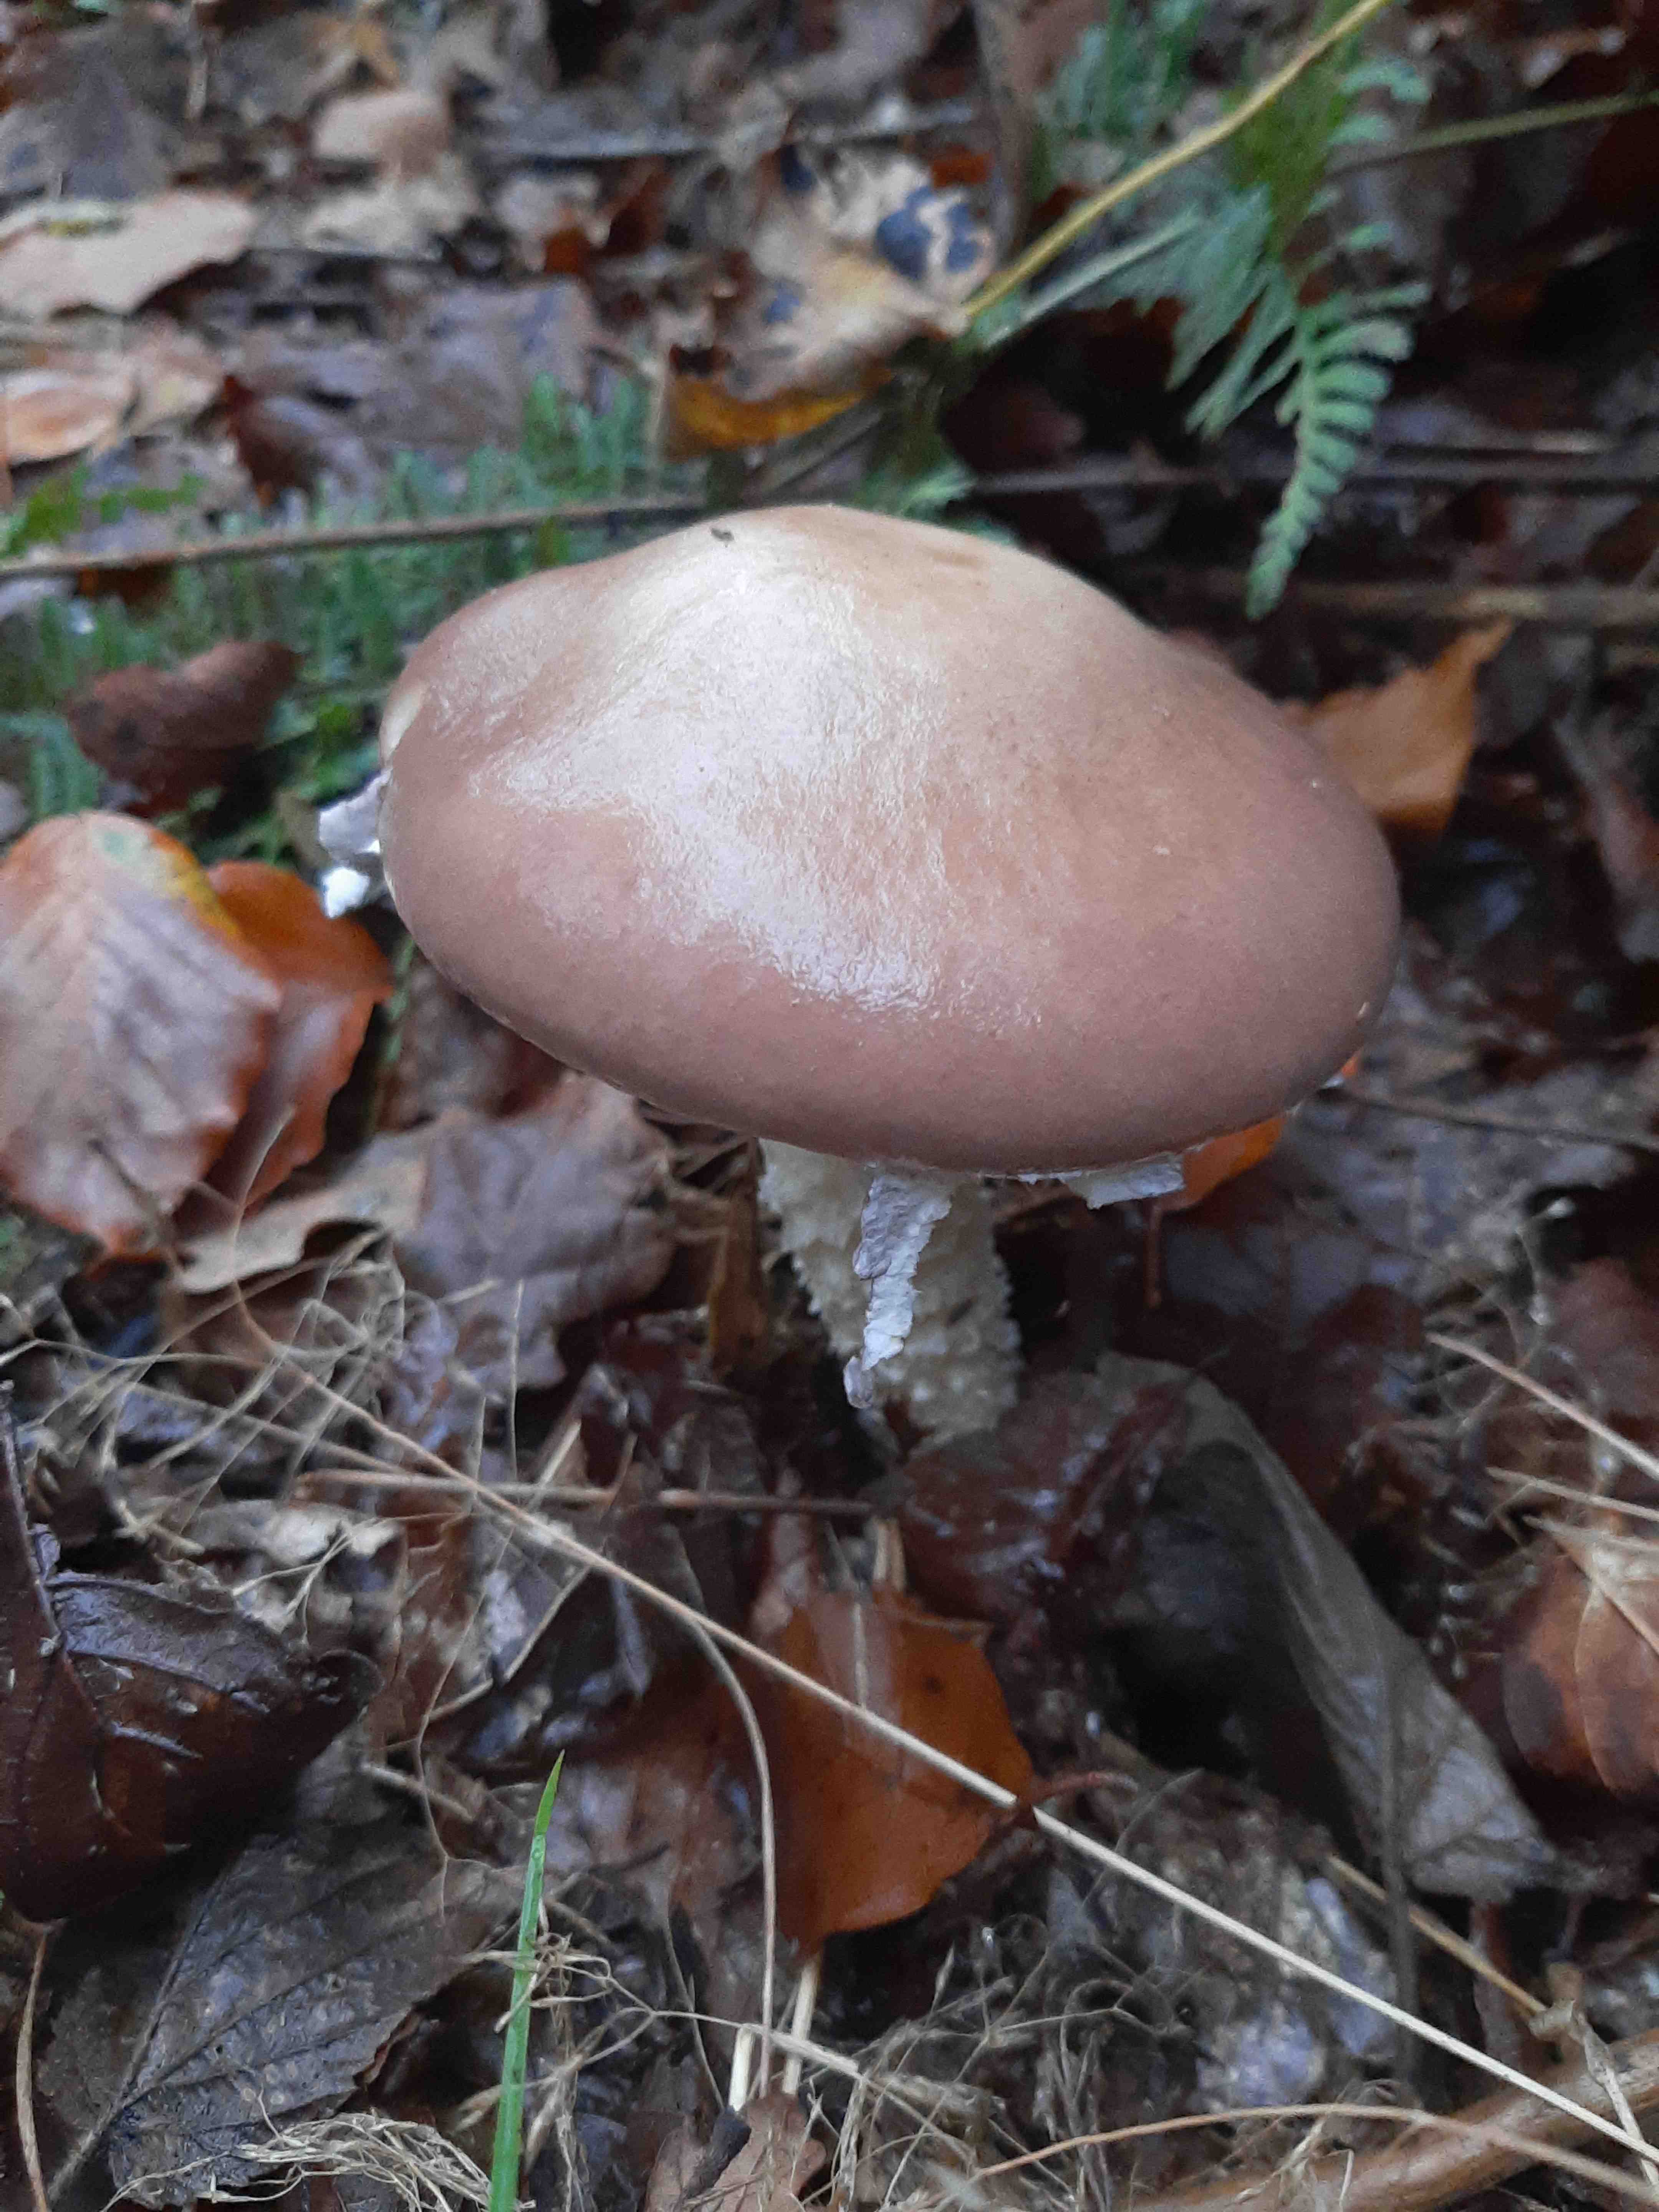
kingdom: Fungi
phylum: Basidiomycota
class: Agaricomycetes
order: Agaricales
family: Strophariaceae
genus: Stropharia
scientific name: Stropharia hornemannii
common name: nordisk bredblad
